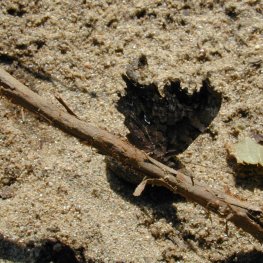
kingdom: Animalia
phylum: Arthropoda
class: Insecta
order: Lepidoptera
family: Nymphalidae
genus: Polygonia
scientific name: Polygonia progne
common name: Gray Comma
